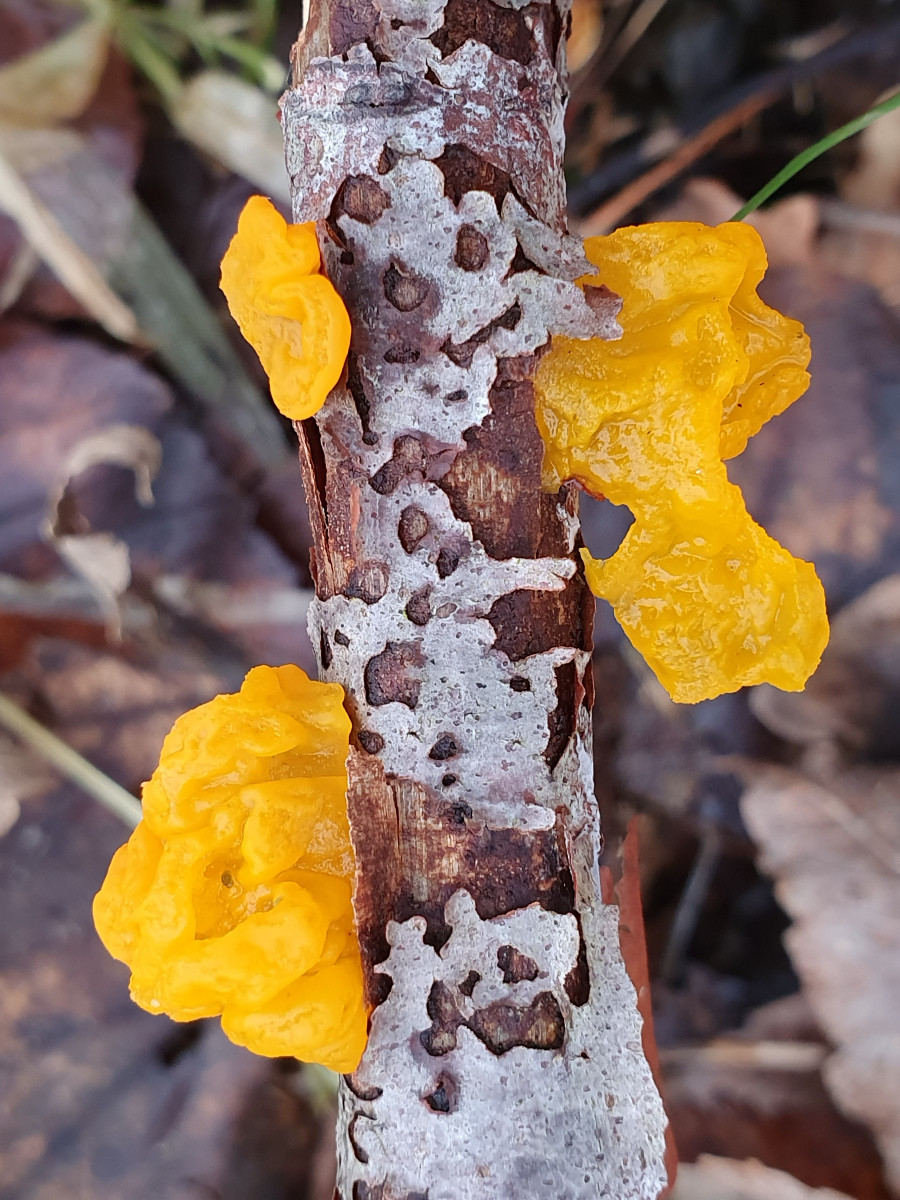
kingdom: Fungi
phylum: Basidiomycota
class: Tremellomycetes
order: Tremellales
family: Tremellaceae
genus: Tremella
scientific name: Tremella mesenterica
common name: gul bævresvamp
